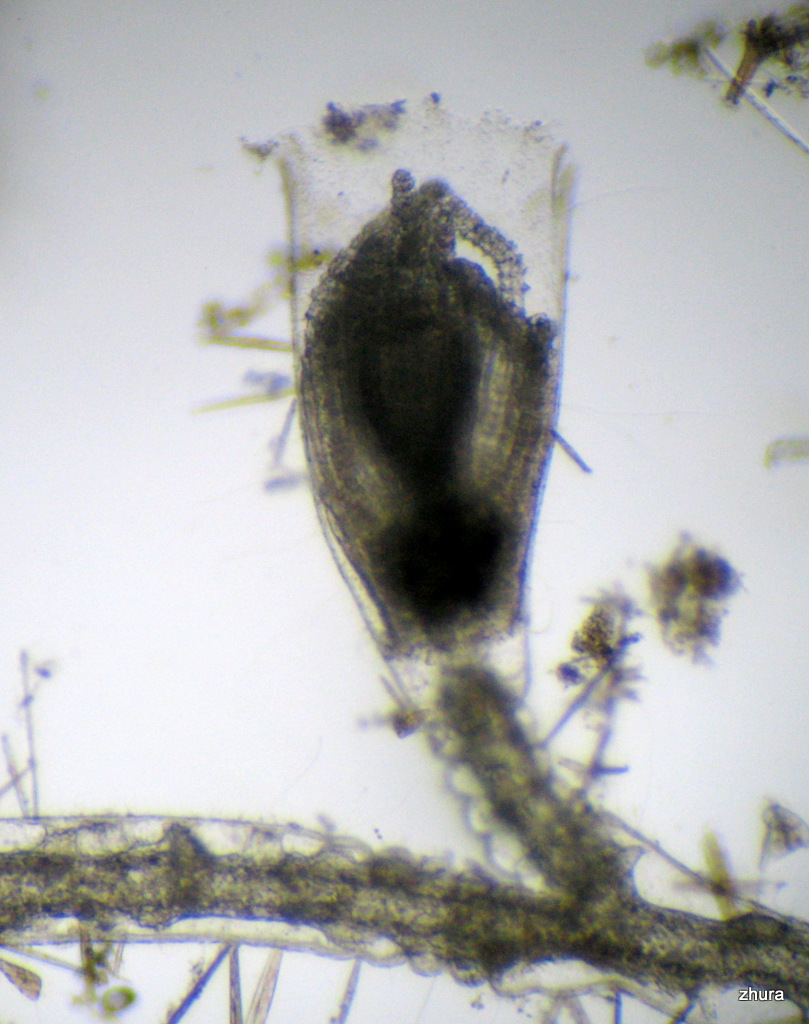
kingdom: Animalia
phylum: Cnidaria
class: Hydrozoa
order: Leptothecata
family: Campanulariidae
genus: Gonothyraea
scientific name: Gonothyraea loveni
